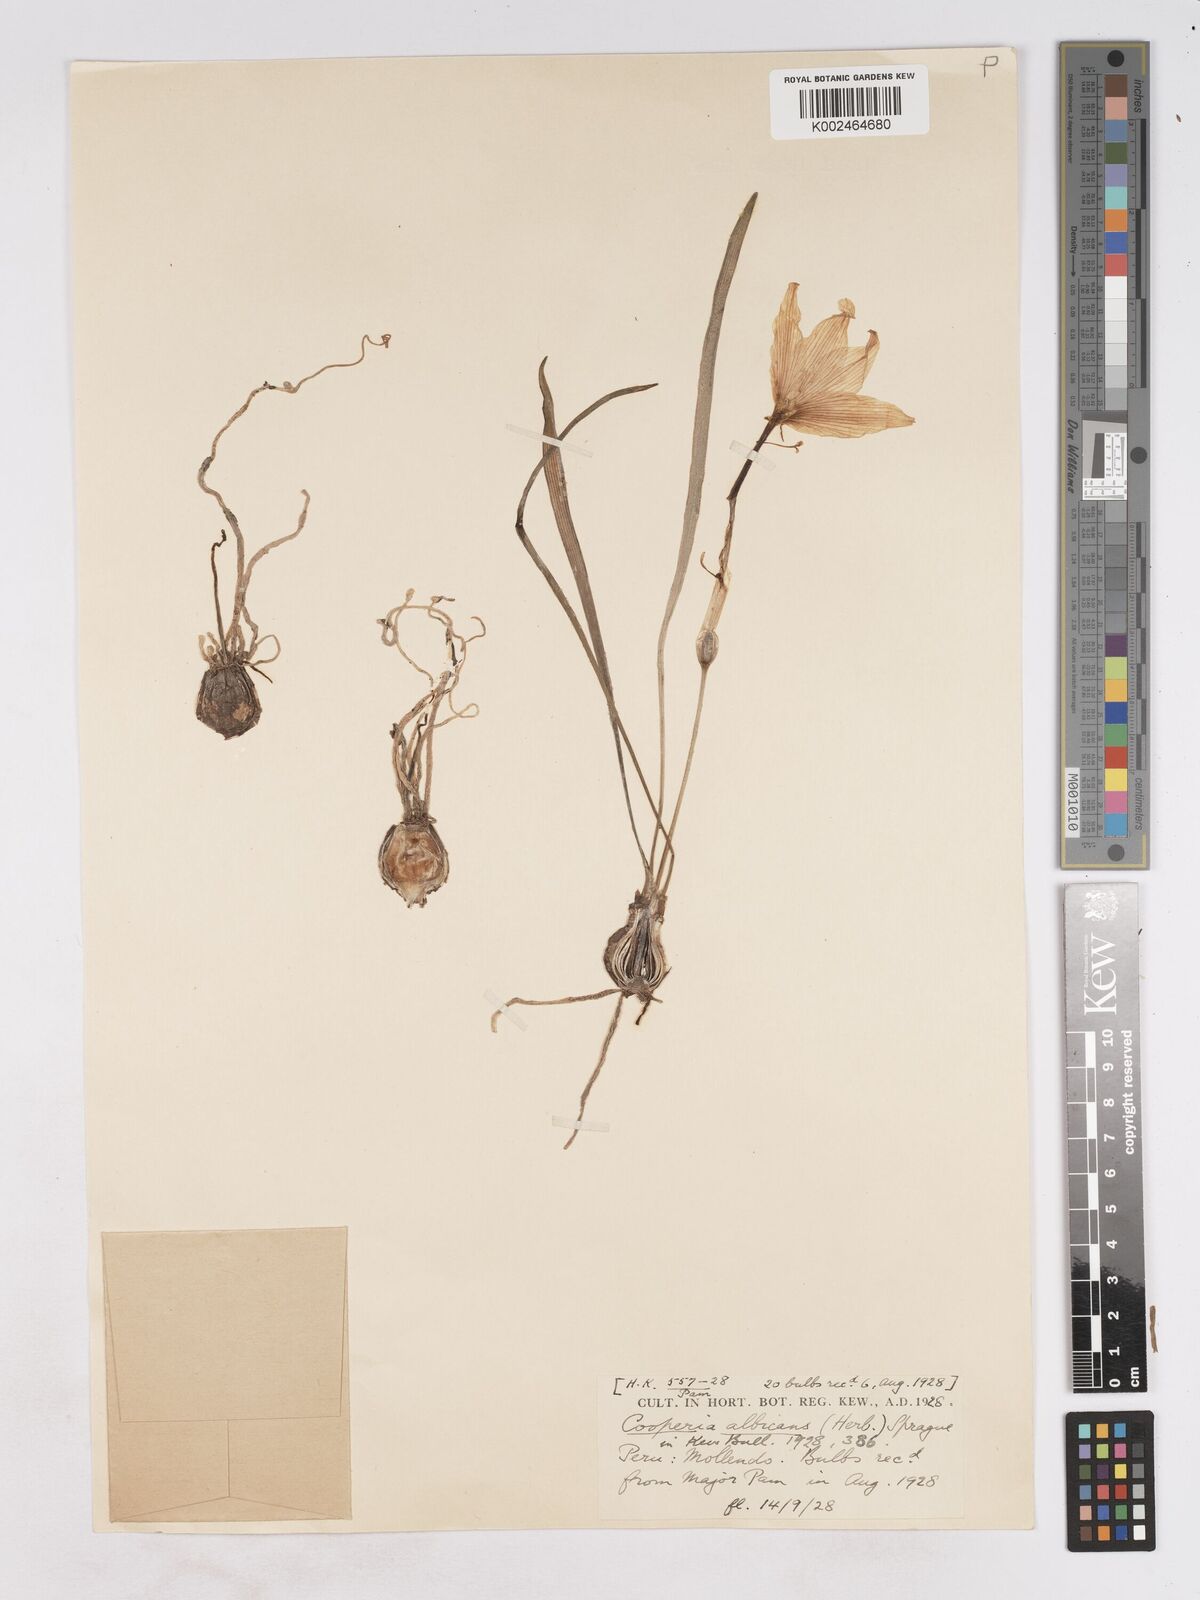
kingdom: Plantae
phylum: Tracheophyta
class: Liliopsida
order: Asparagales
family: Amaryllidaceae
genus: Pyrolirion
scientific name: Pyrolirion albicans
